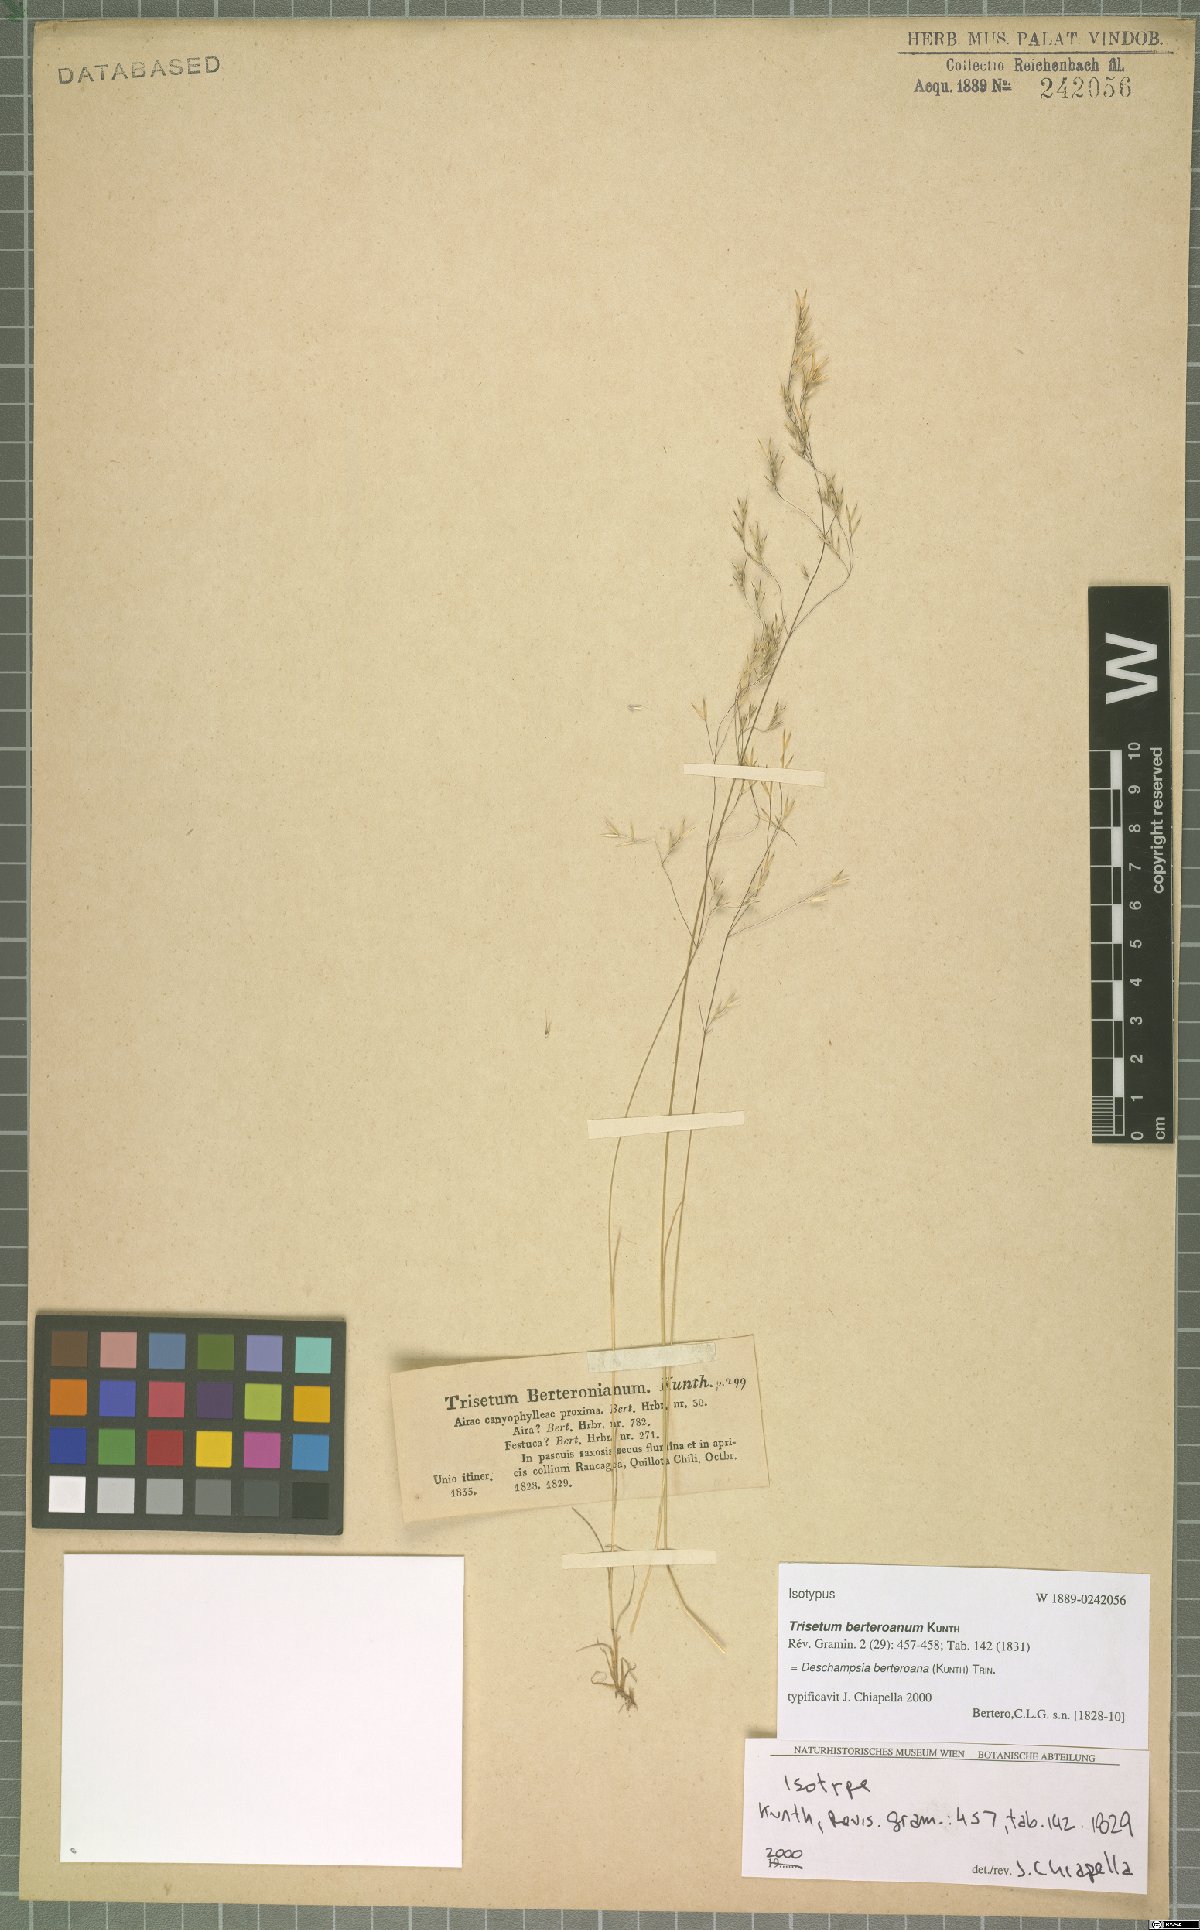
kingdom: Plantae
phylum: Tracheophyta
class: Liliopsida
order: Poales
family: Poaceae
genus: Deschampsia
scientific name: Deschampsia berteroana
